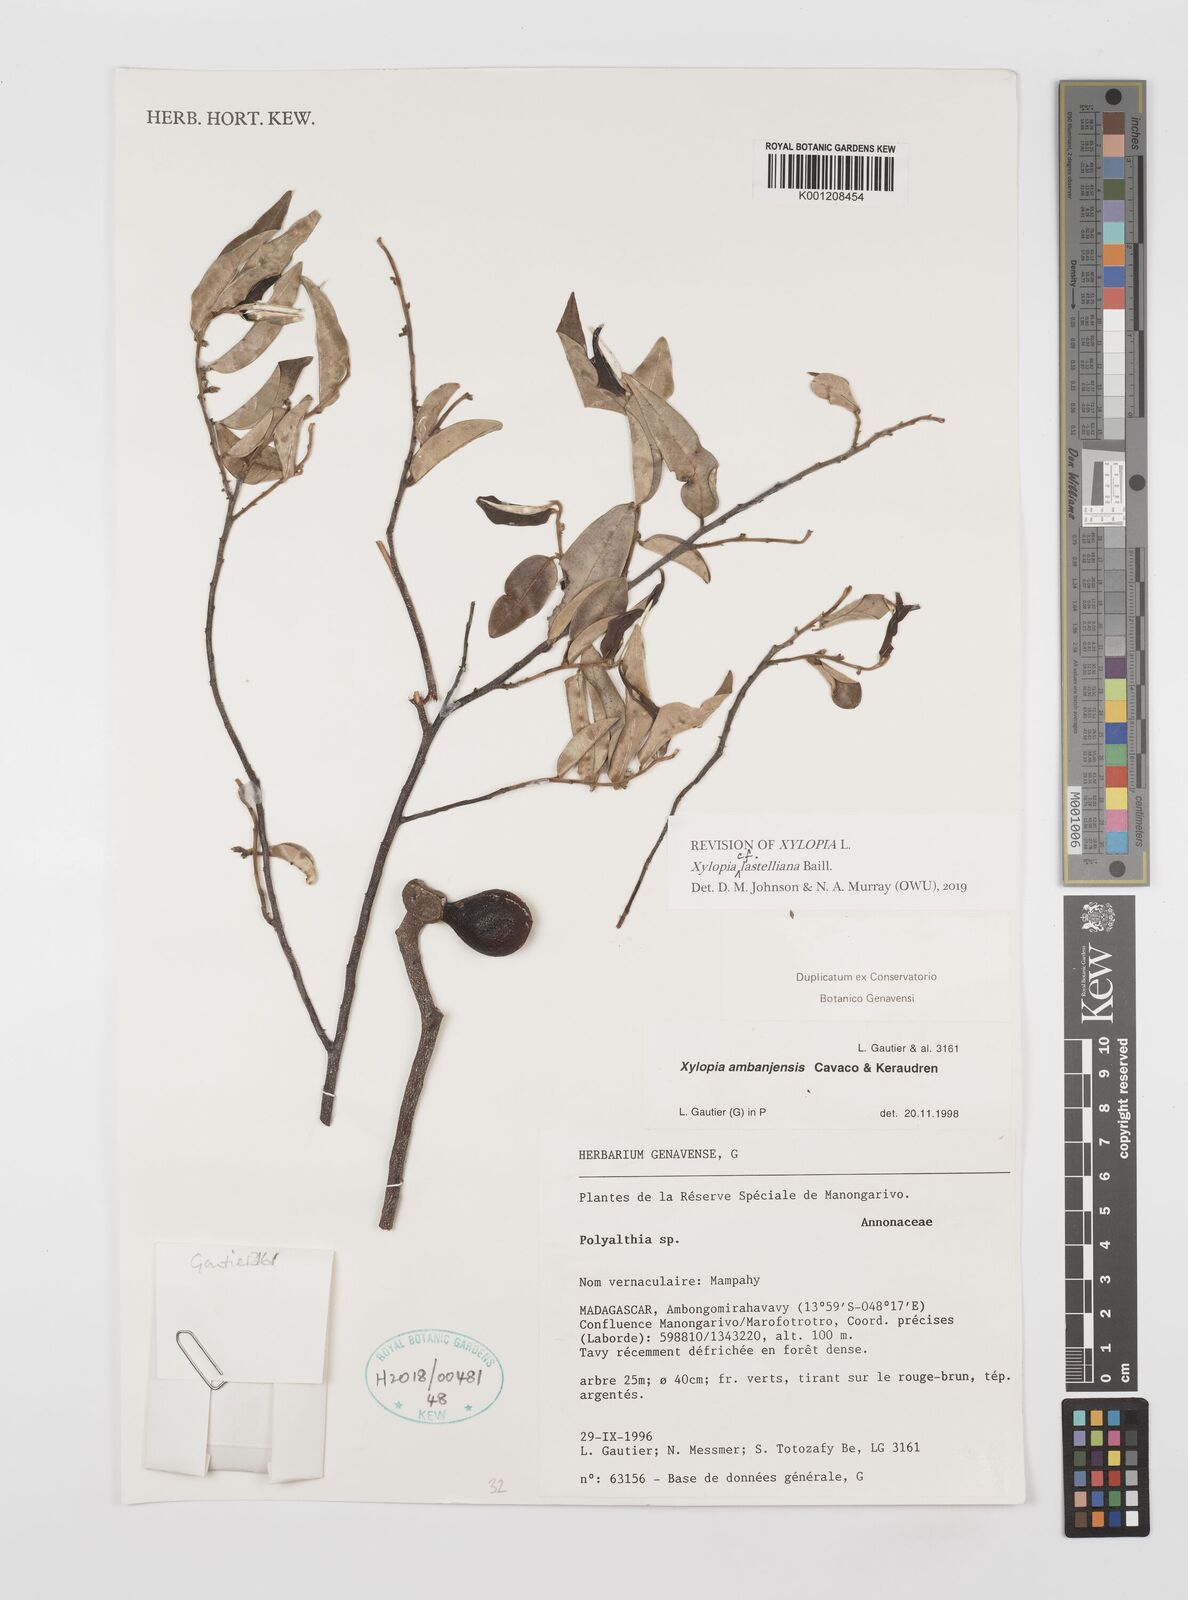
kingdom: Plantae
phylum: Tracheophyta
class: Magnoliopsida
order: Magnoliales
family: Annonaceae
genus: Xylopia
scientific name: Xylopia ambanjensis
